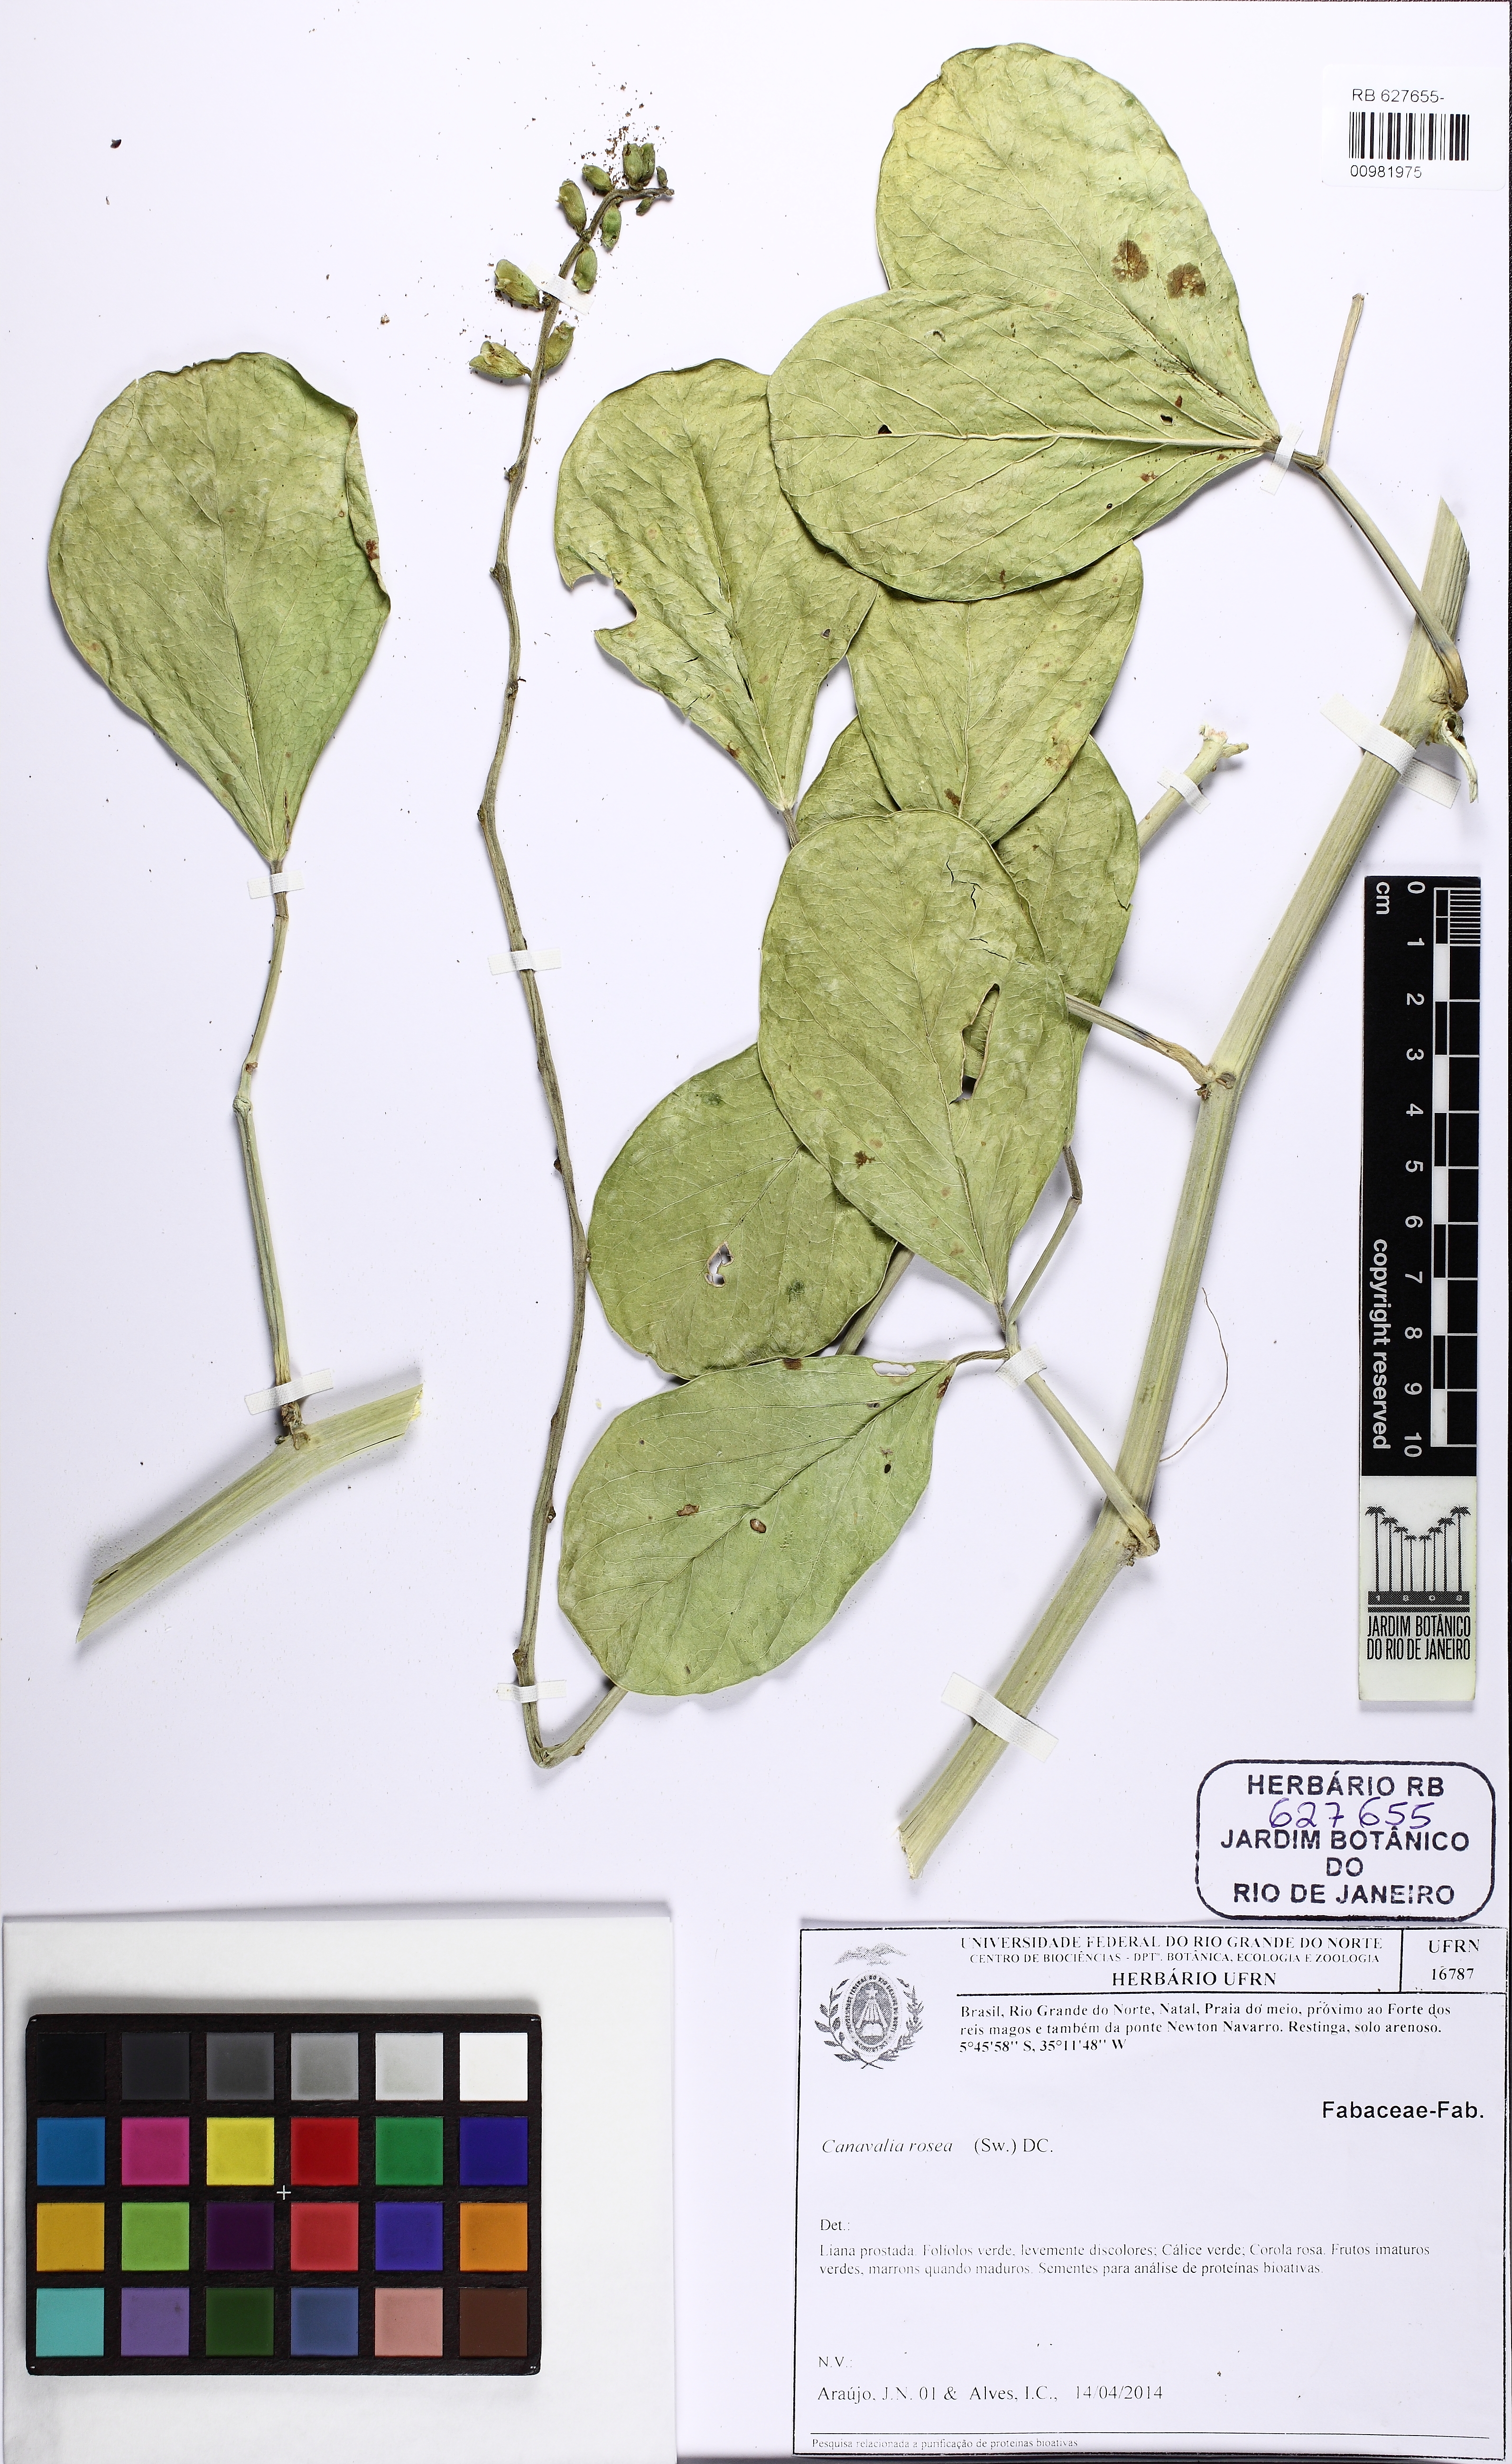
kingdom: Plantae
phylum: Tracheophyta
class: Magnoliopsida
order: Fabales
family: Fabaceae
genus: Canavalia
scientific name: Canavalia rosea
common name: Beach-bean
